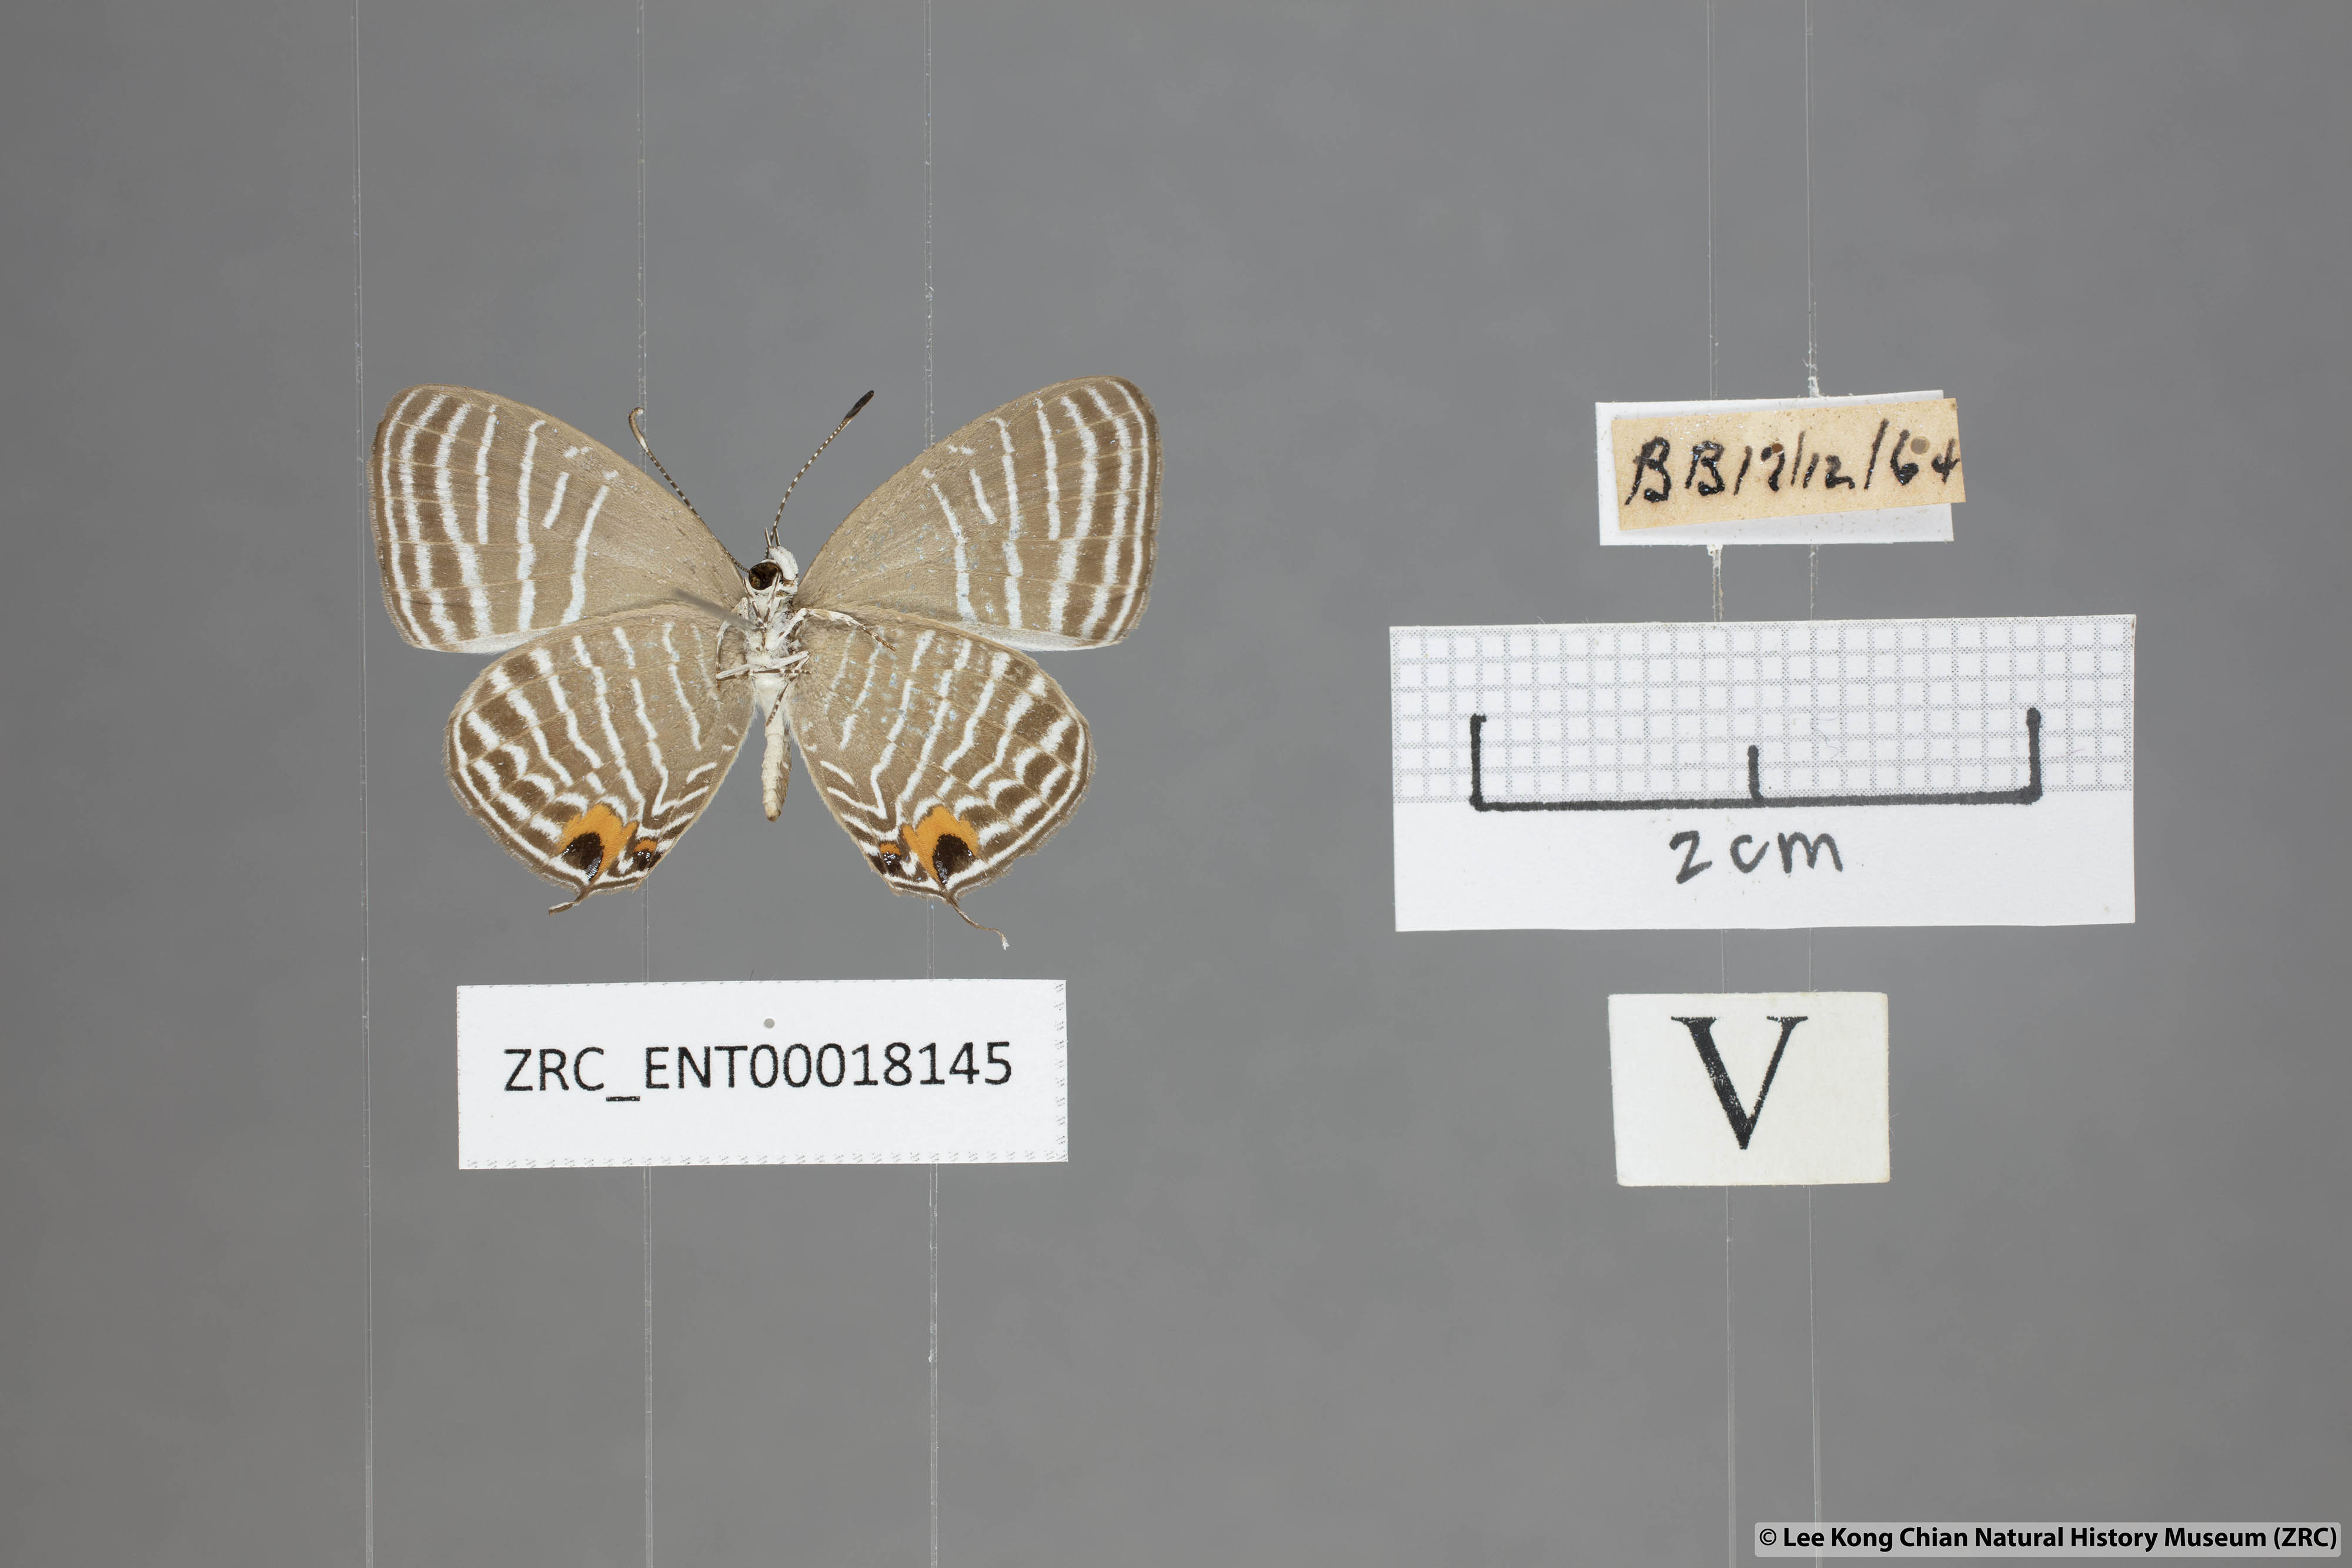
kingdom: Animalia
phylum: Arthropoda
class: Insecta
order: Lepidoptera
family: Lycaenidae
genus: Jamides
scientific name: Jamides parasaturata
